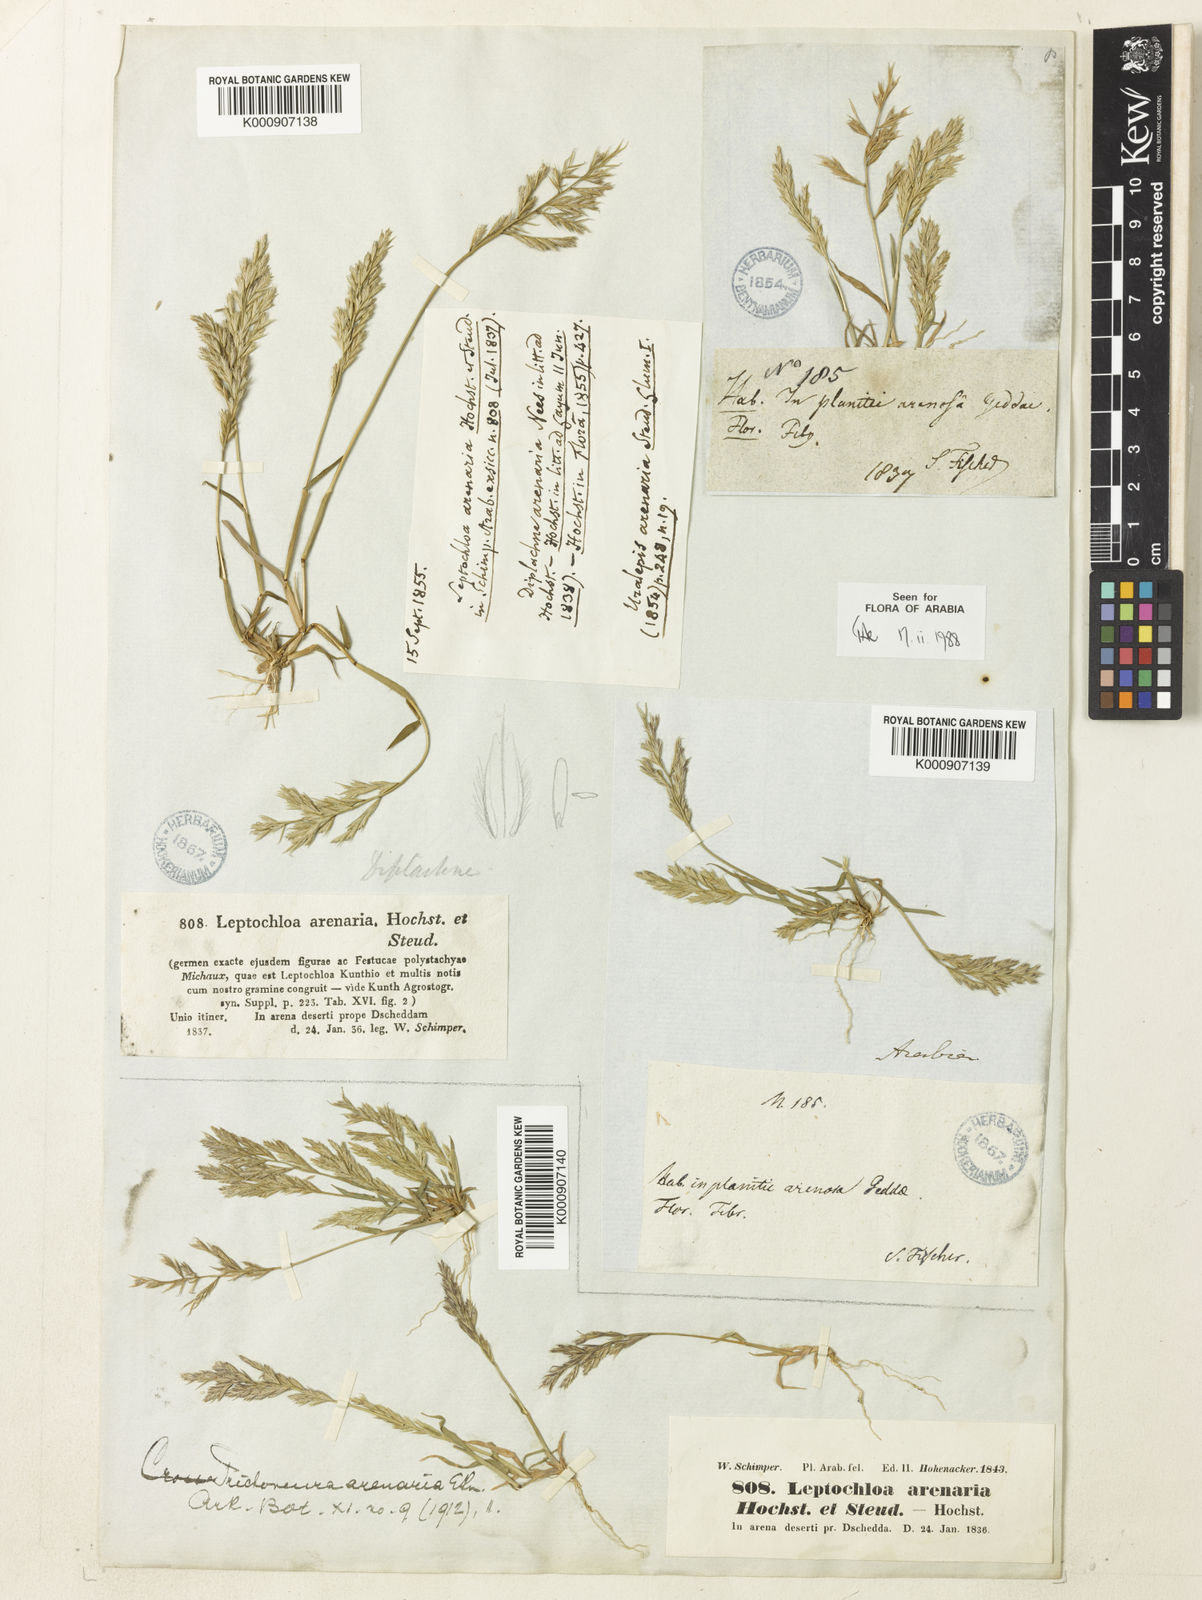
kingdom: Plantae
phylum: Tracheophyta
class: Liliopsida
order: Poales
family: Poaceae
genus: Trichoneura
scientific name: Trichoneura mollis
